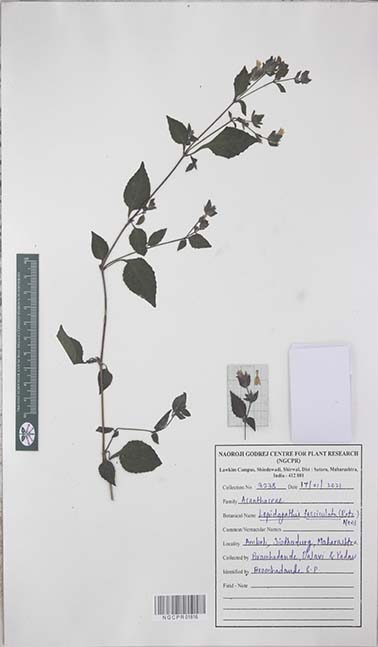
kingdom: Plantae
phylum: Tracheophyta
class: Magnoliopsida
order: Lamiales
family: Acanthaceae
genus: Lepidagathis
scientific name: Lepidagathis fasciculata
